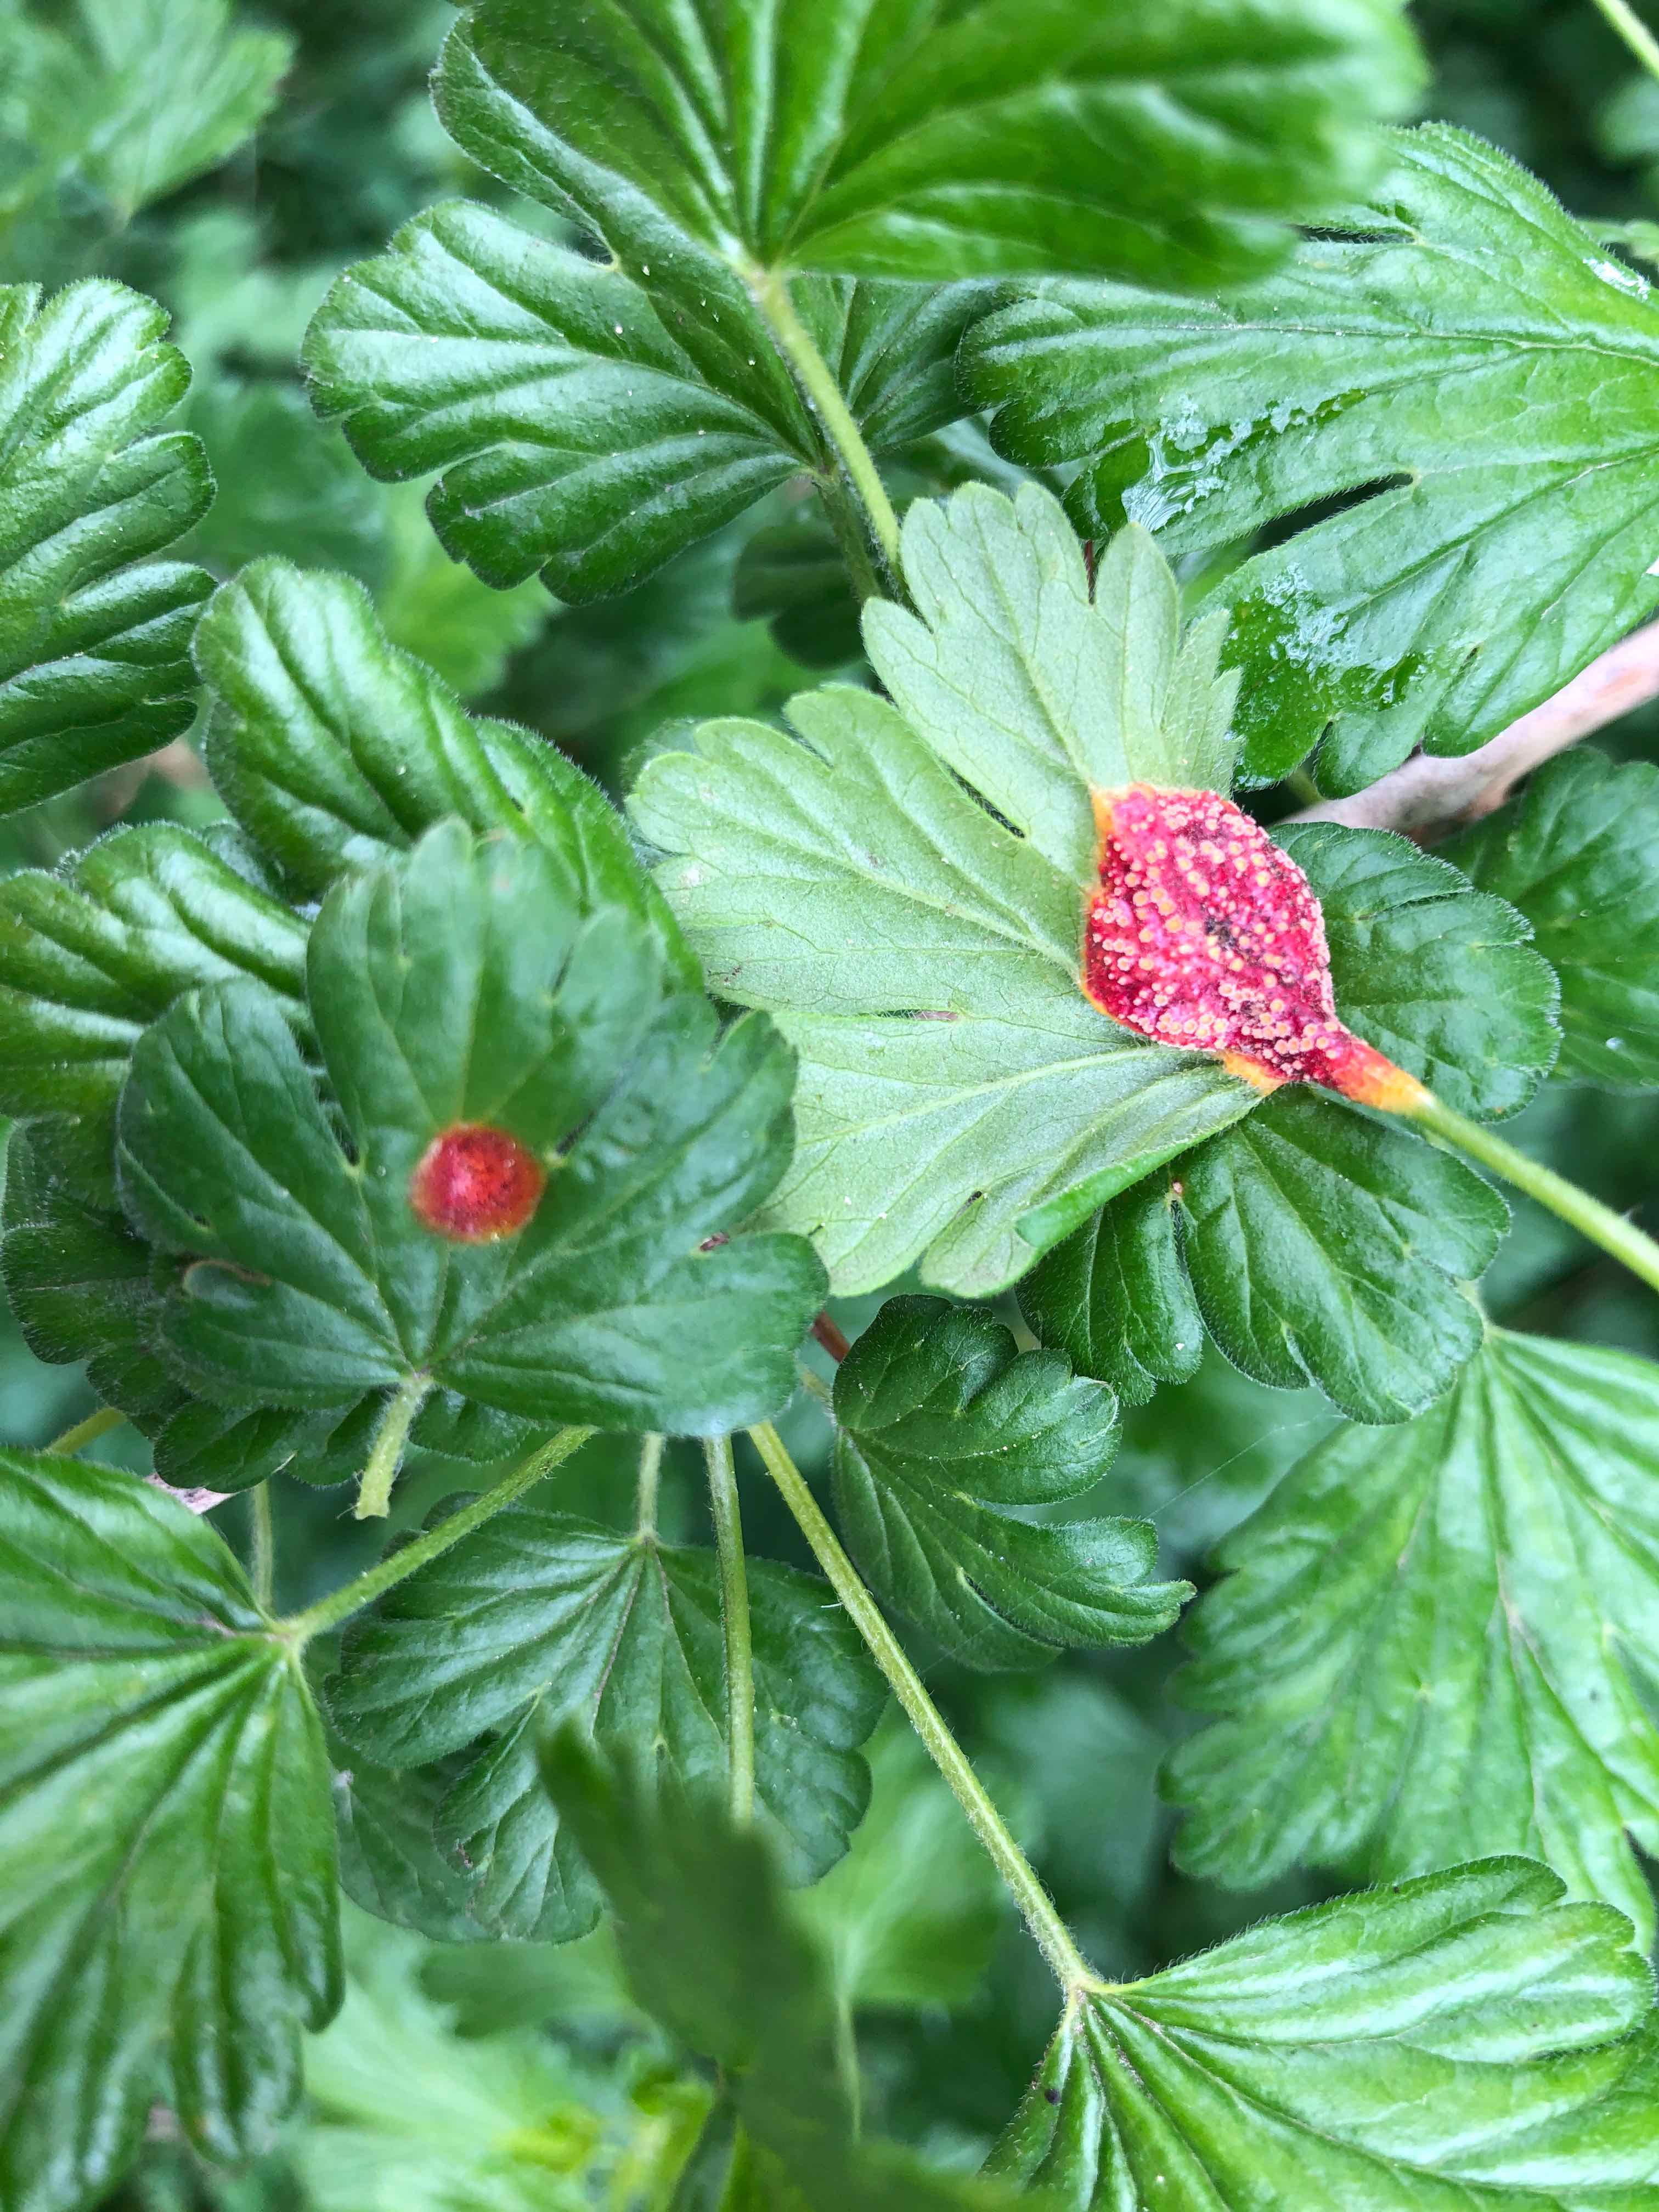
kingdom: Fungi
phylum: Basidiomycota
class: Pucciniomycetes
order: Pucciniales
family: Pucciniaceae
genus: Puccinia
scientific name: Puccinia caricina
